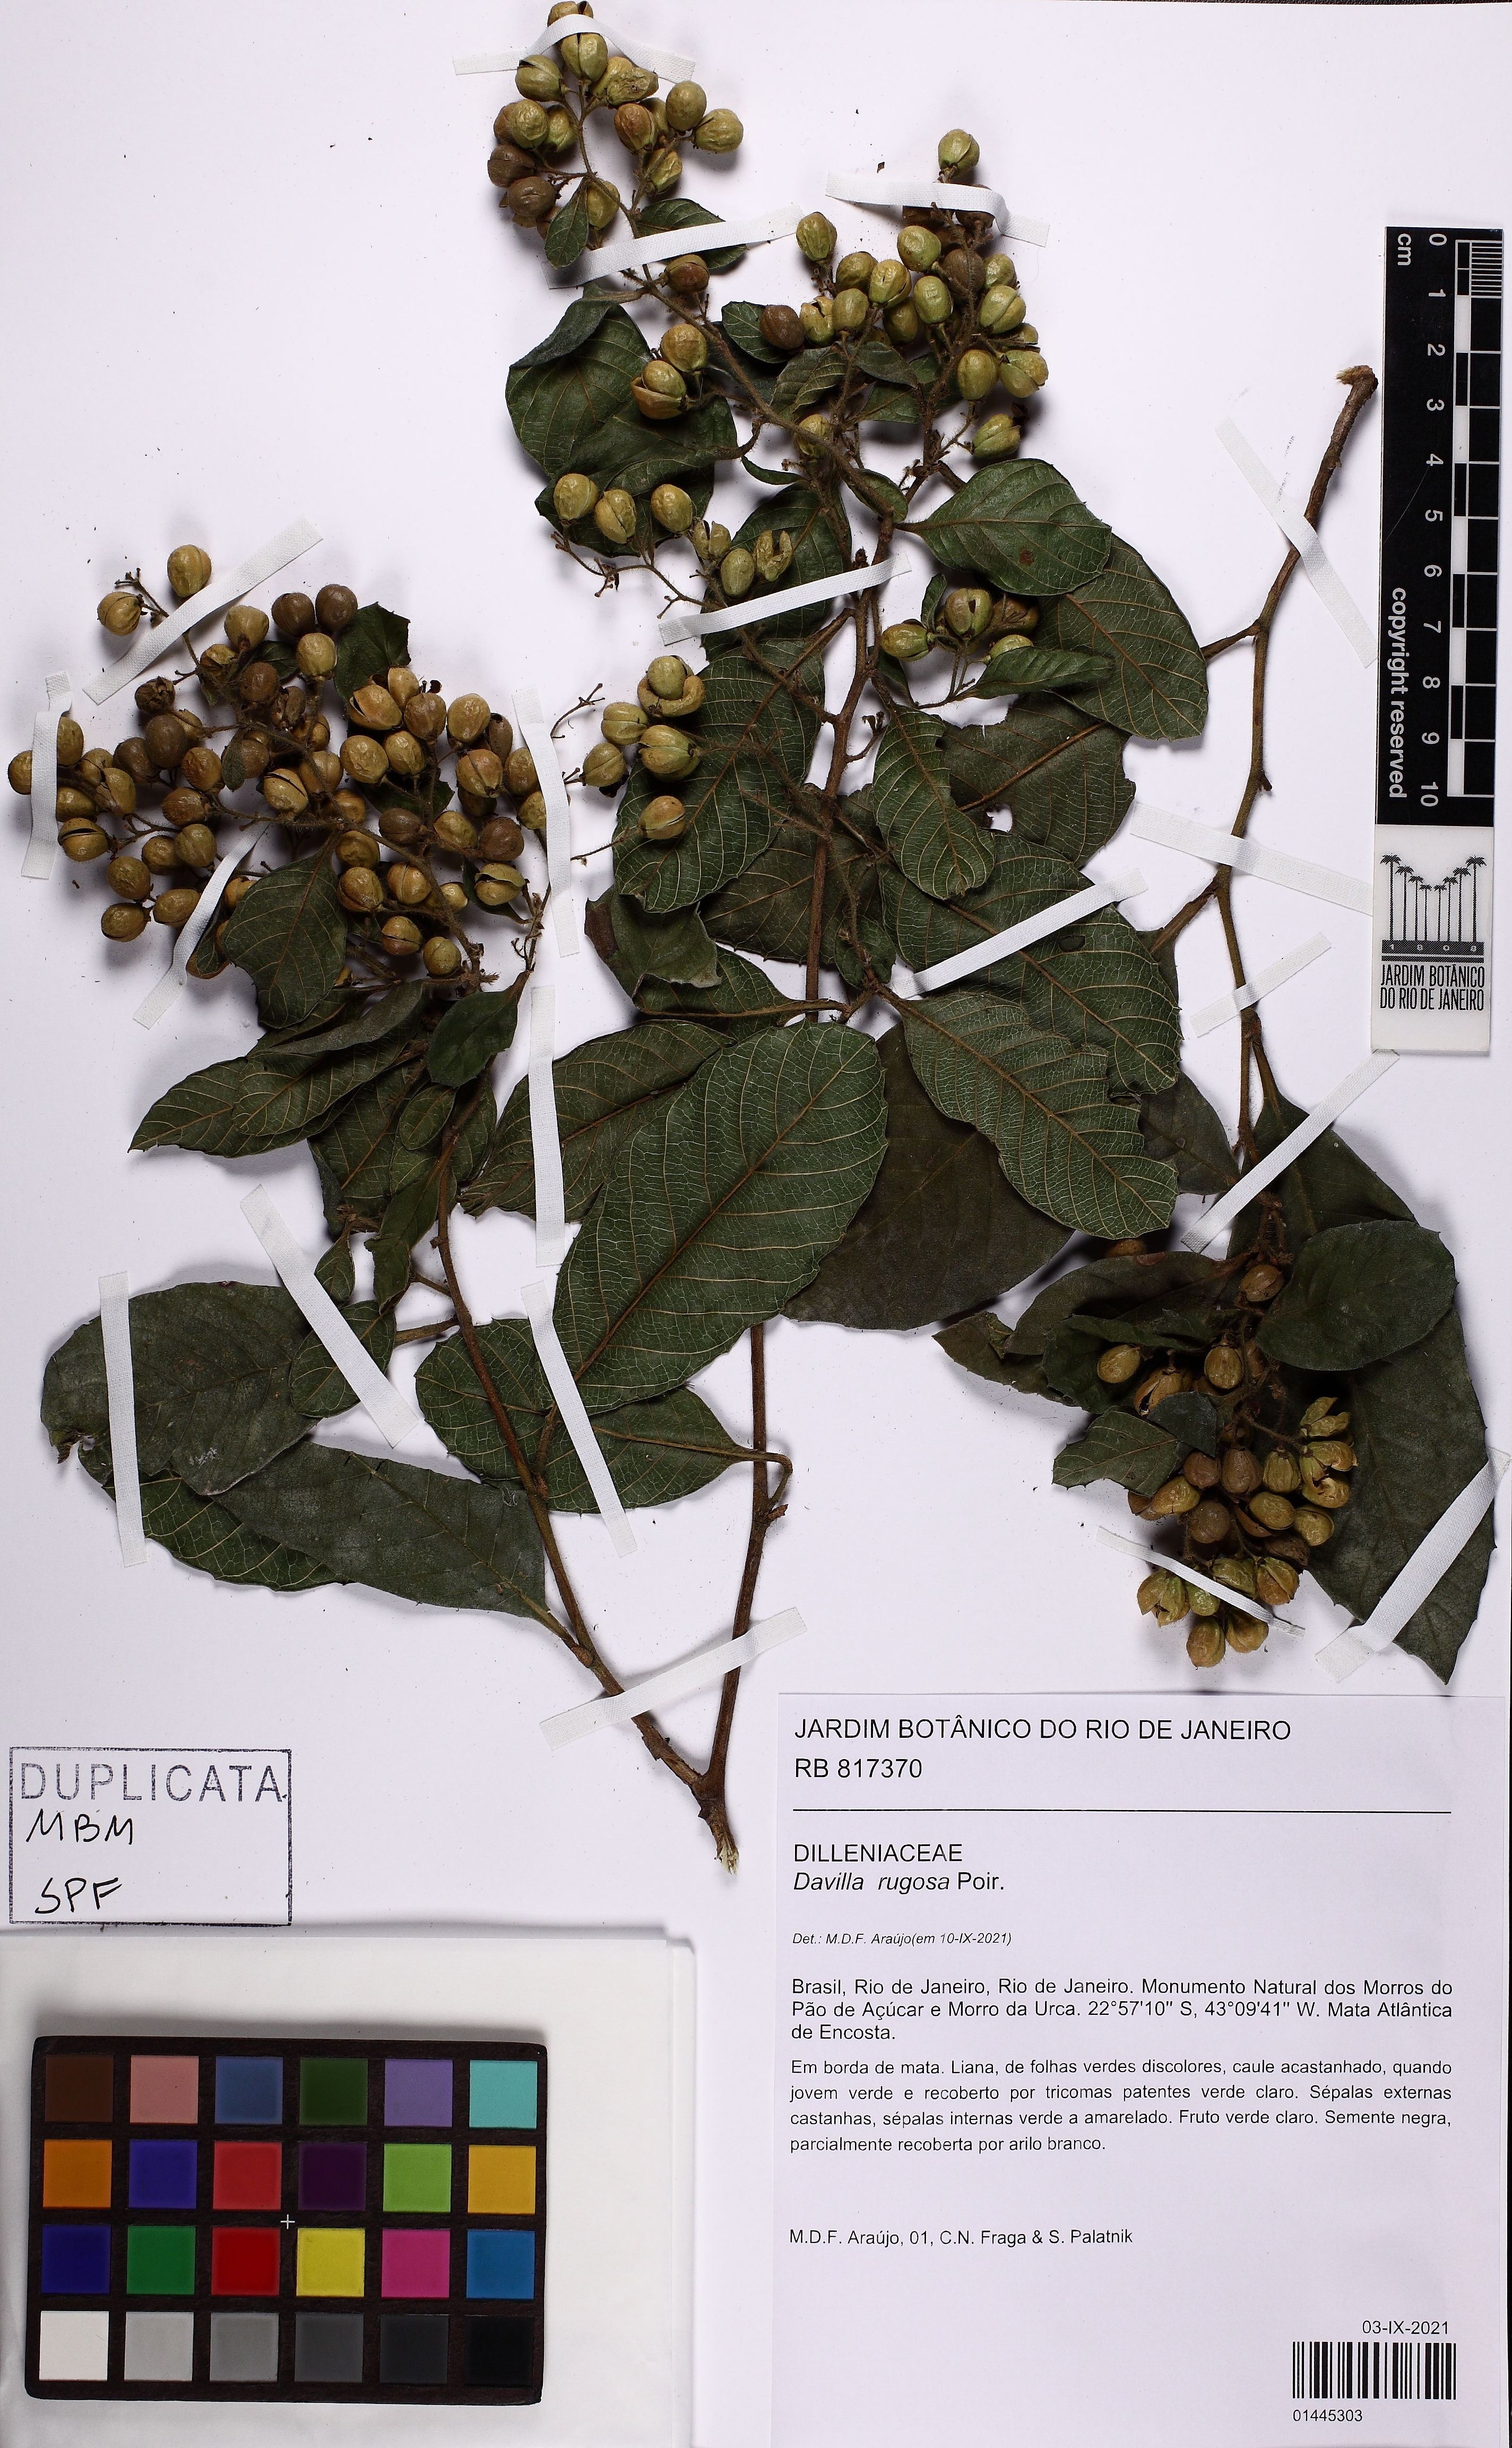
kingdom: Plantae
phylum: Tracheophyta
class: Magnoliopsida
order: Dilleniales
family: Dilleniaceae
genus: Davilla
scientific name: Davilla rugosa
